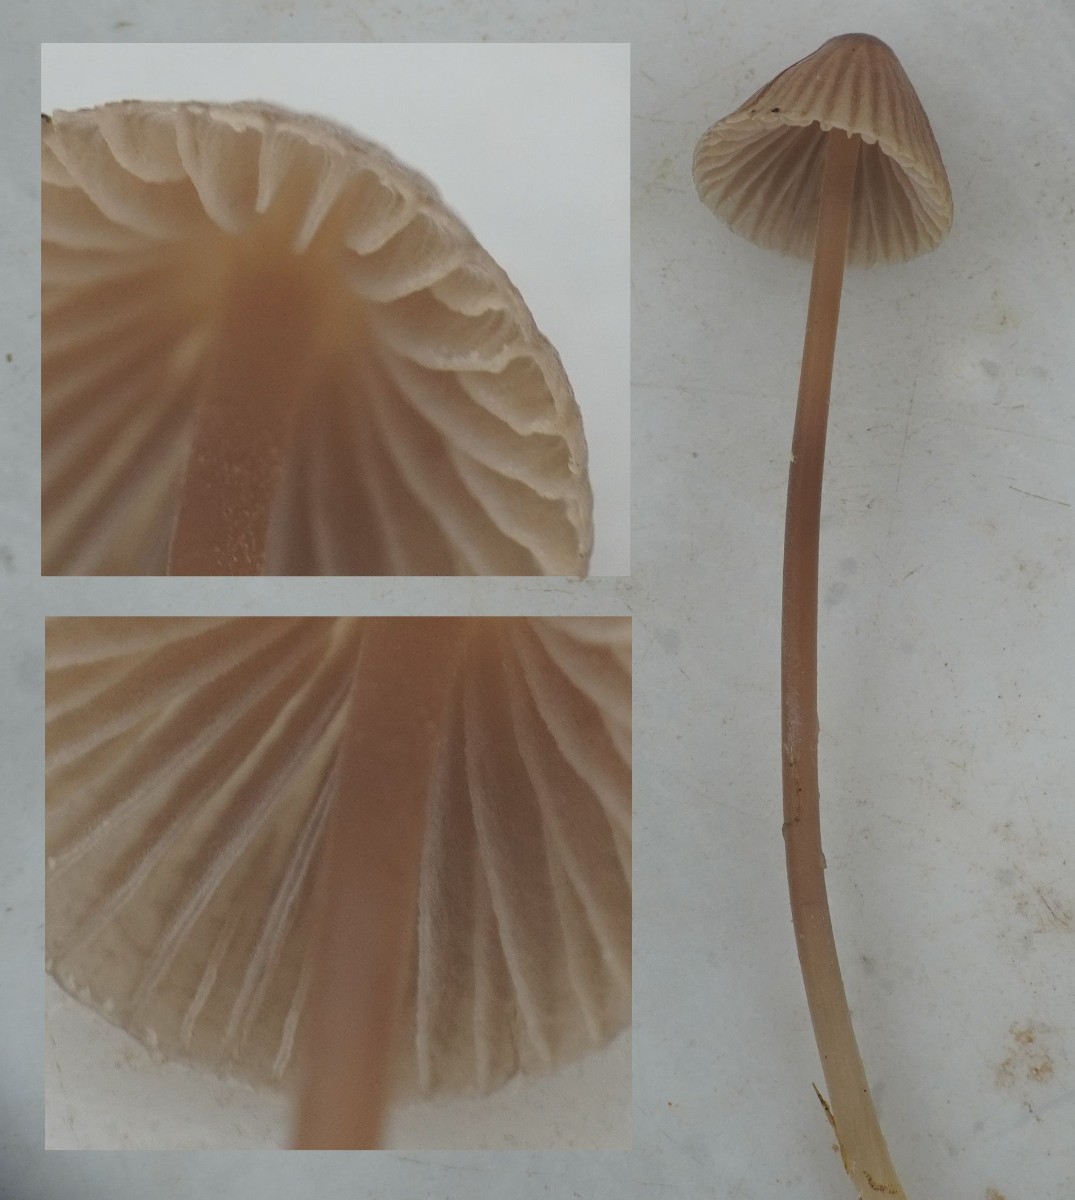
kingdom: Fungi
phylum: Basidiomycota
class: Agaricomycetes
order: Agaricales
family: Mycenaceae
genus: Mycena
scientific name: Mycena
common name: huesvamp
